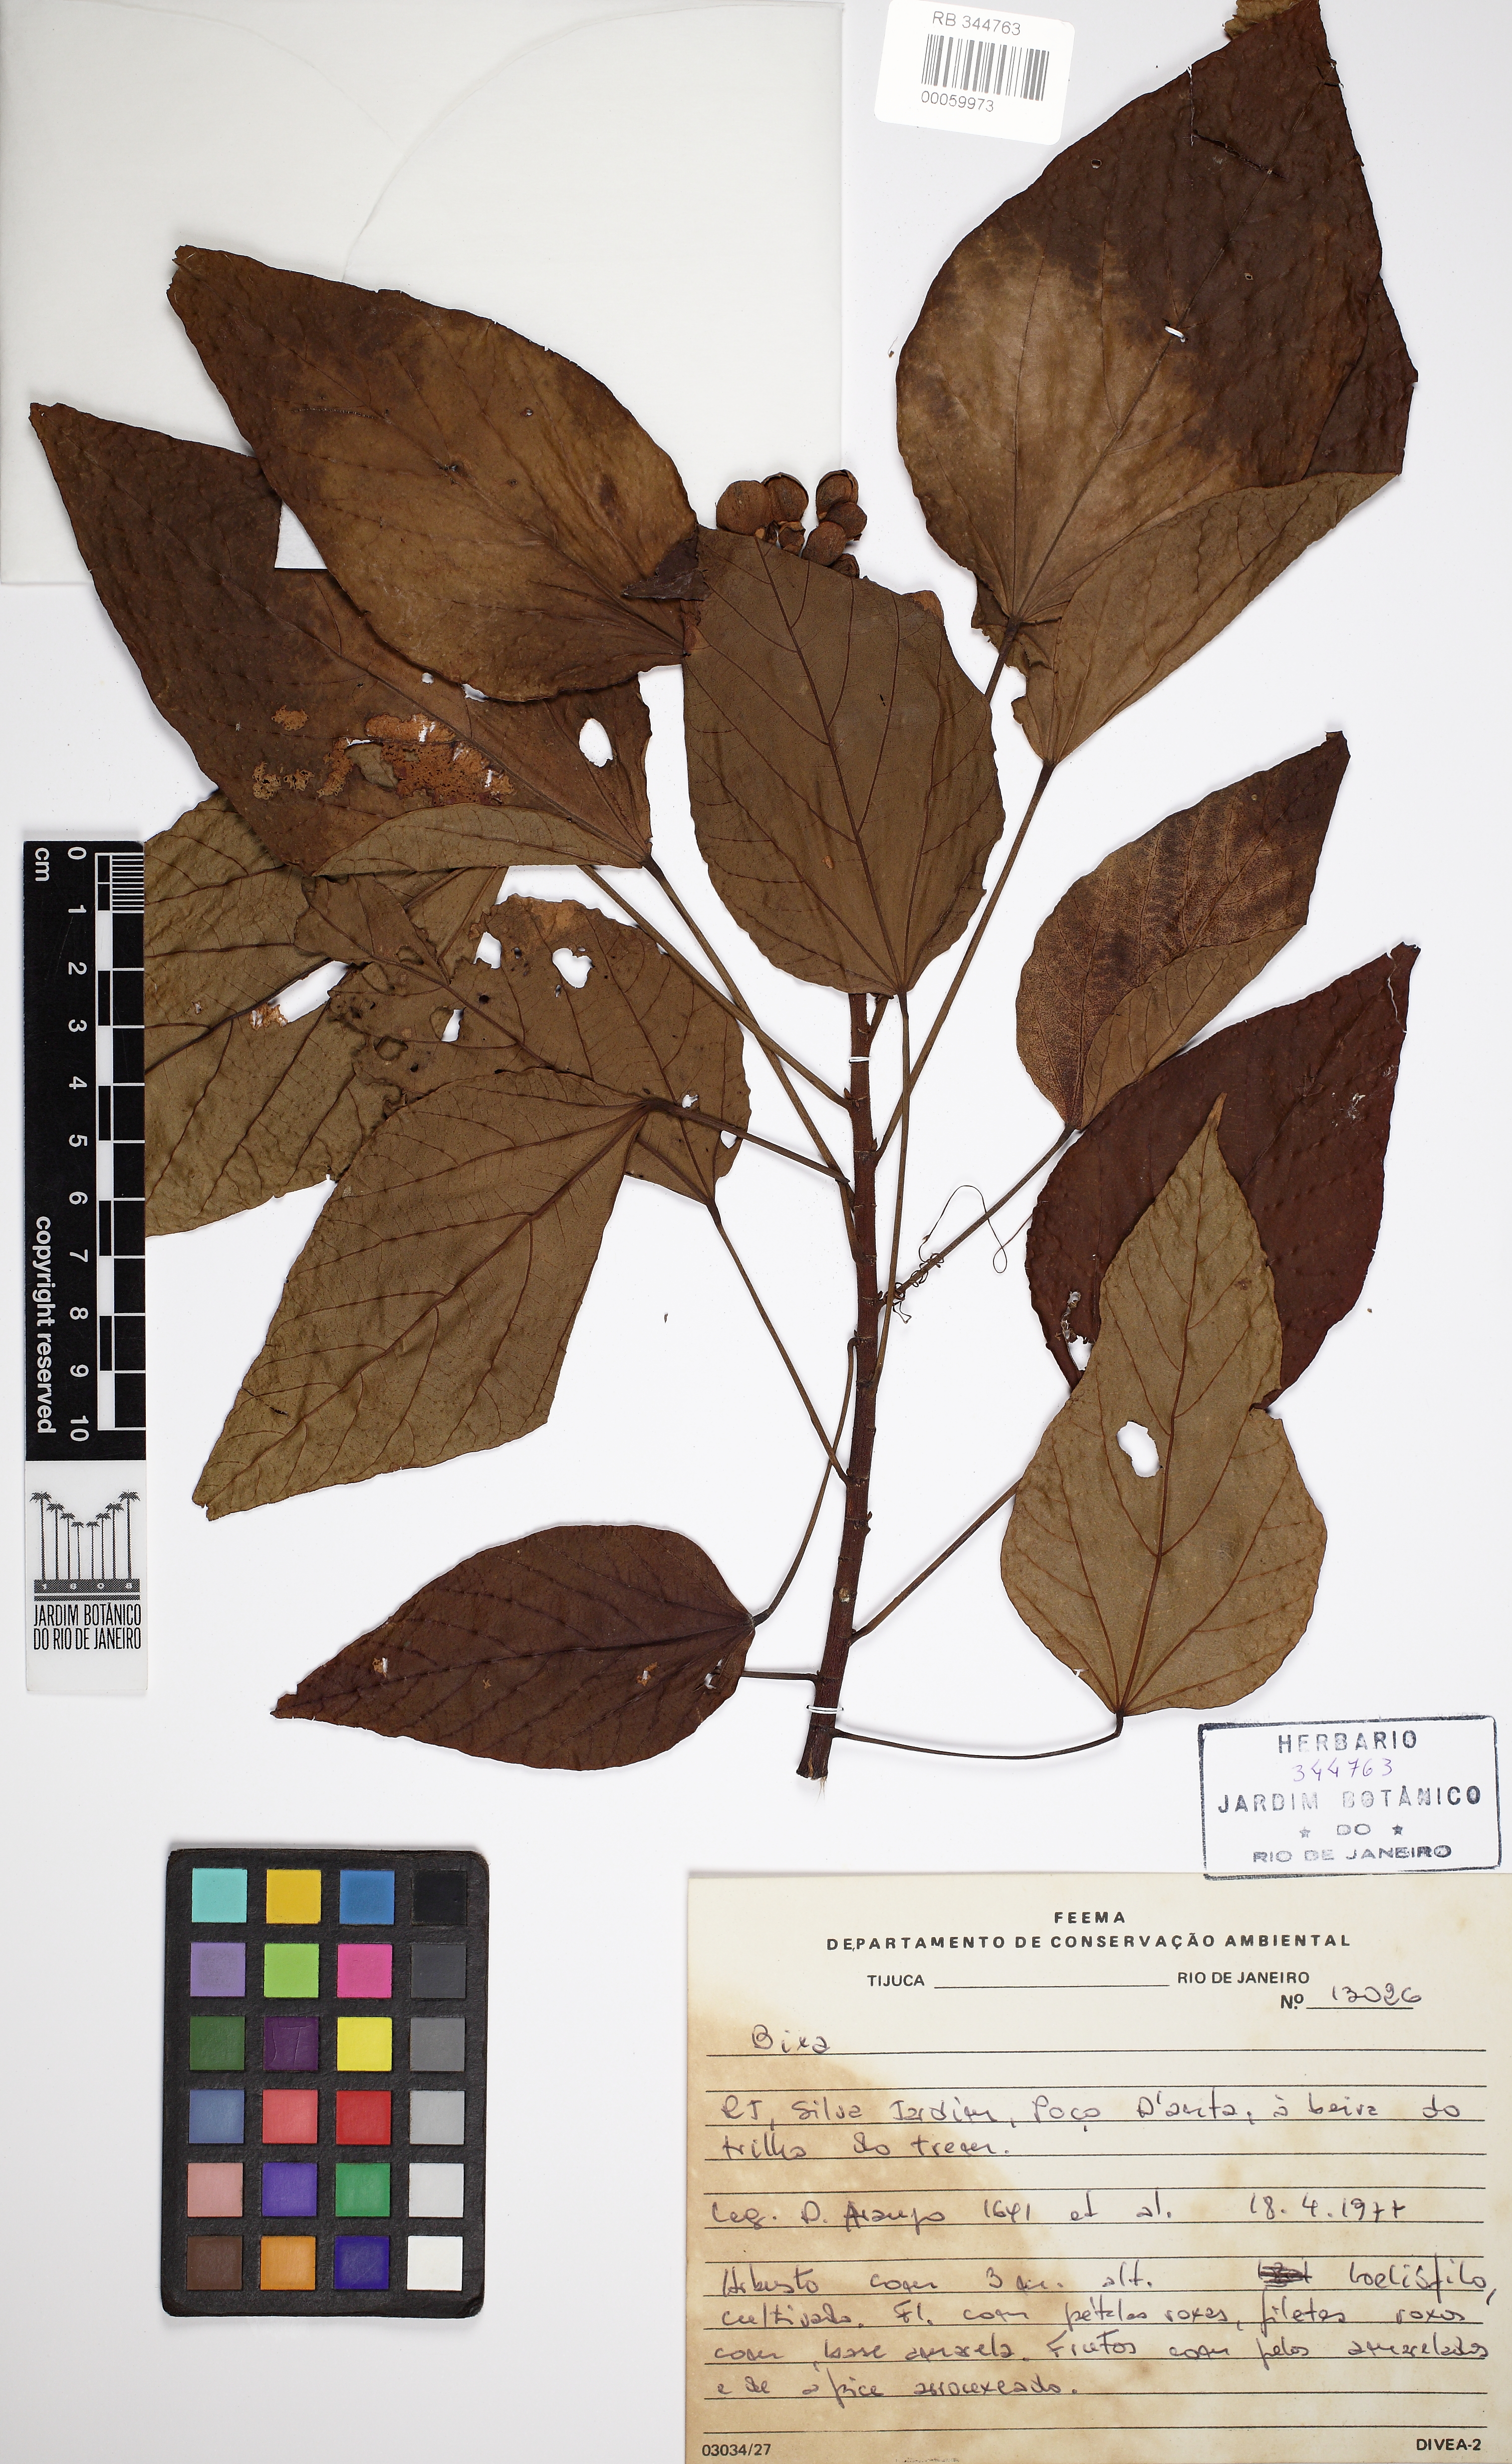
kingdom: Plantae
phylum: Tracheophyta
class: Magnoliopsida
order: Malvales
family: Bixaceae
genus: Bixa
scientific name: Bixa
